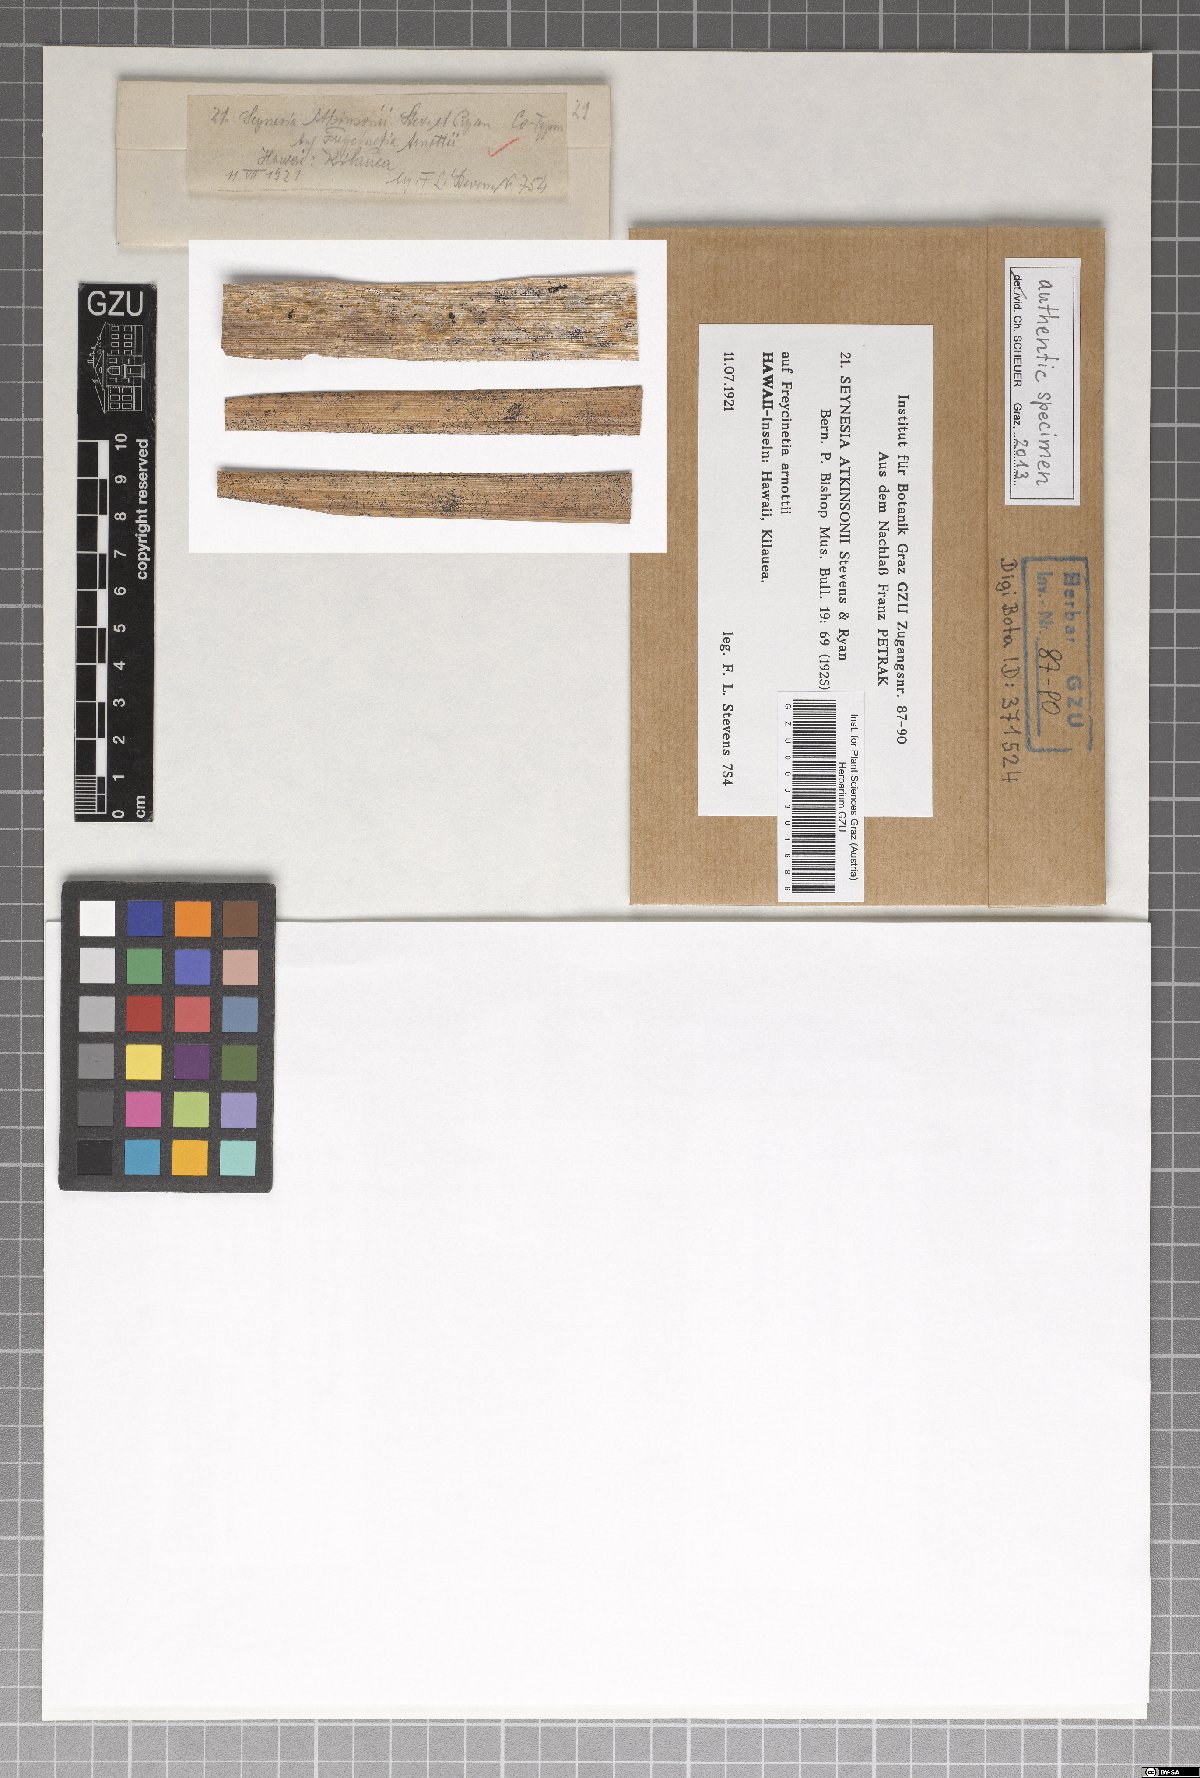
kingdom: Fungi
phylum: Ascomycota
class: Dothideomycetes
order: Pleosporales
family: Kirschsteiniotheliaceae
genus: Kirschsteiniothelia
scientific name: Kirschsteiniothelia atkinsonii
